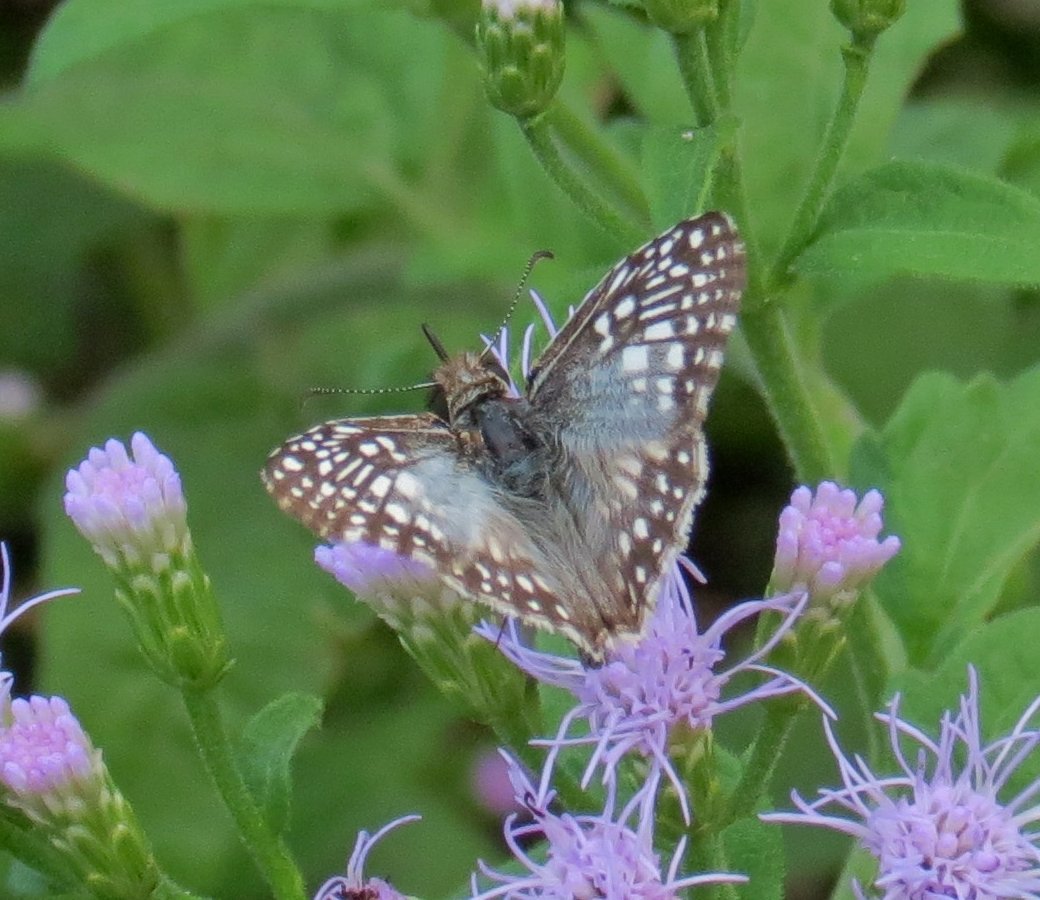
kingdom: Animalia
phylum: Arthropoda
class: Insecta
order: Lepidoptera
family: Hesperiidae
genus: Pyrgus
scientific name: Pyrgus oileus
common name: Tropical Checkered-Skipper
